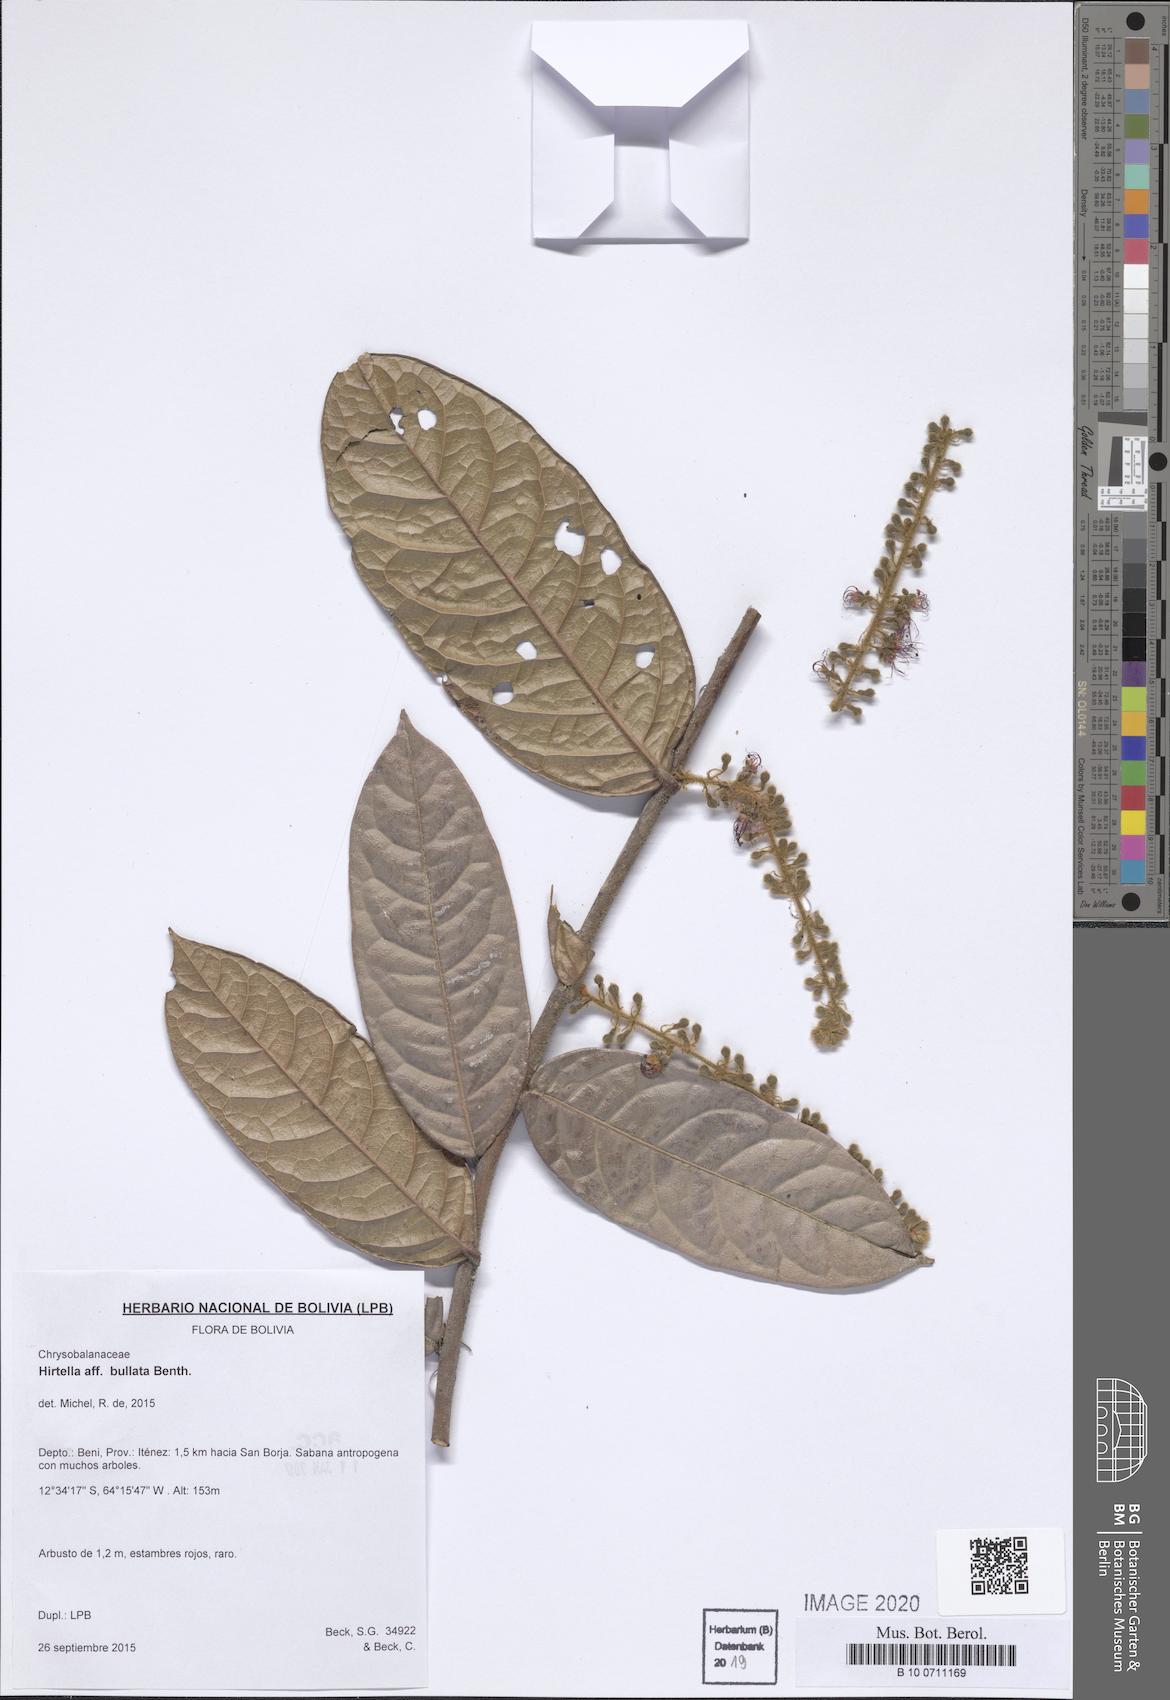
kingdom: Plantae
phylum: Tracheophyta
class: Magnoliopsida
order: Malpighiales
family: Chrysobalanaceae
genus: Hirtella
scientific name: Hirtella bullata
